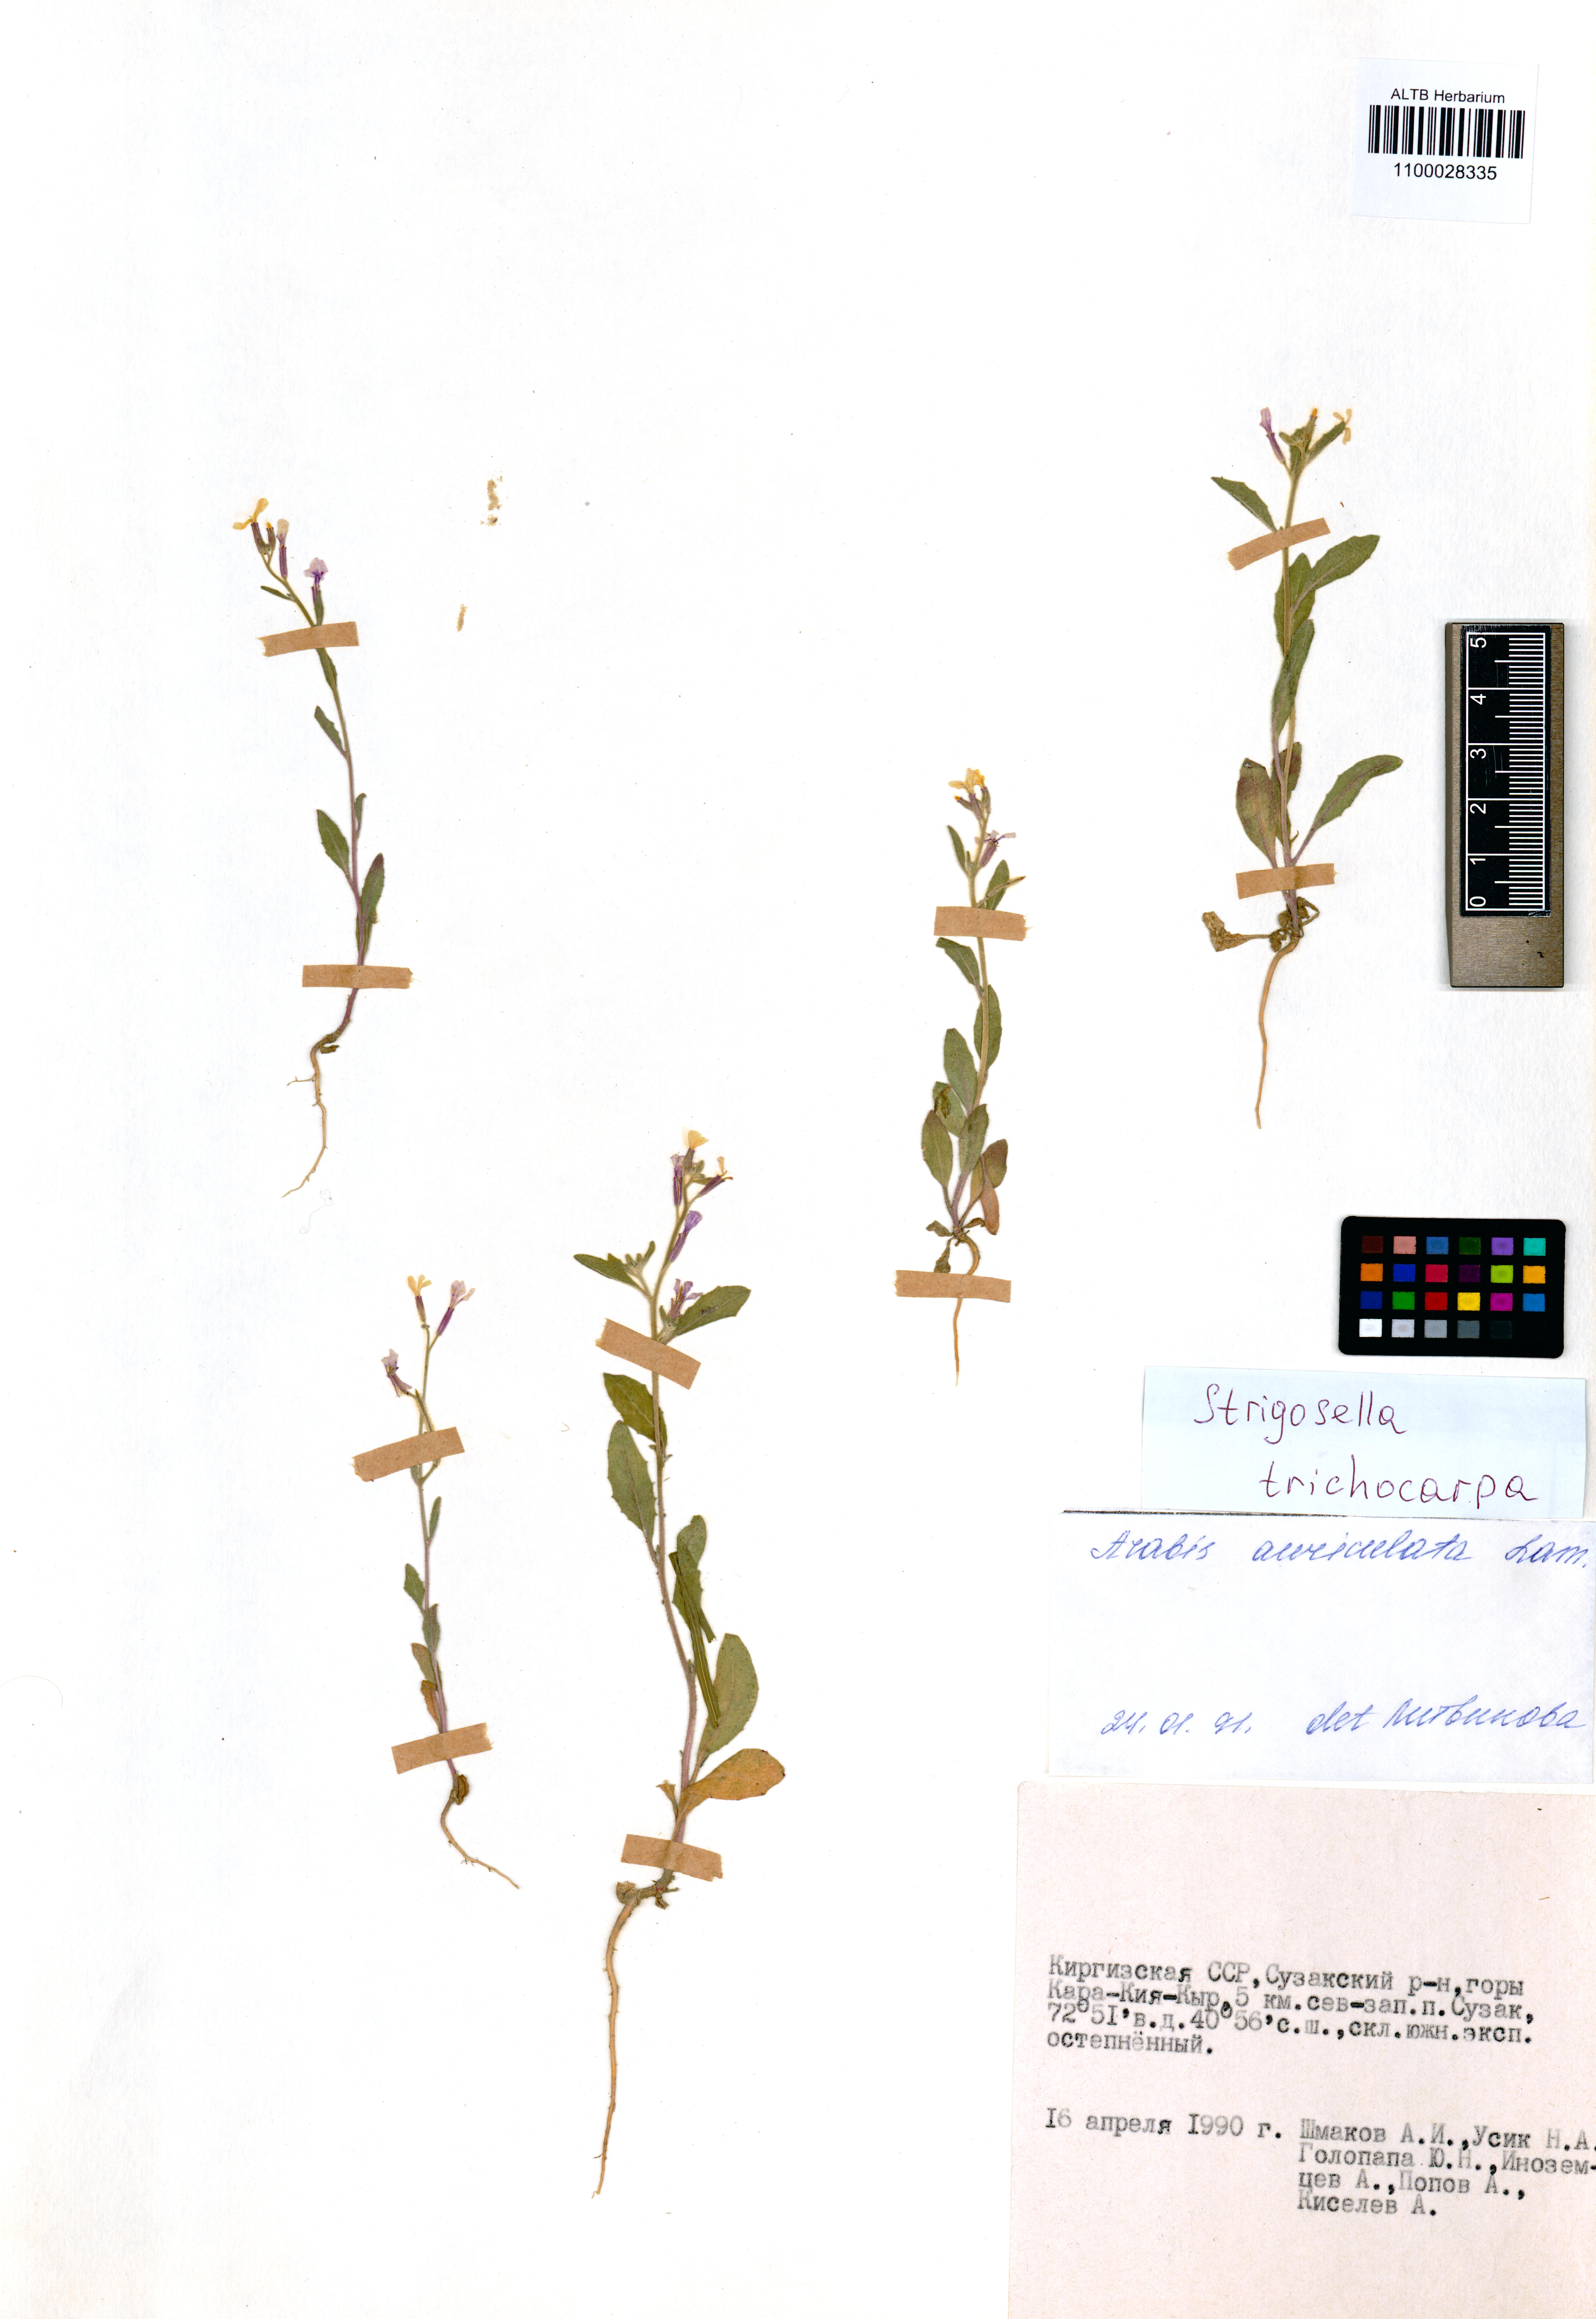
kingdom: Plantae
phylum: Tracheophyta
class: Magnoliopsida
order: Brassicales
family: Brassicaceae
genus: Strigosella
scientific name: Strigosella trichocarpa
